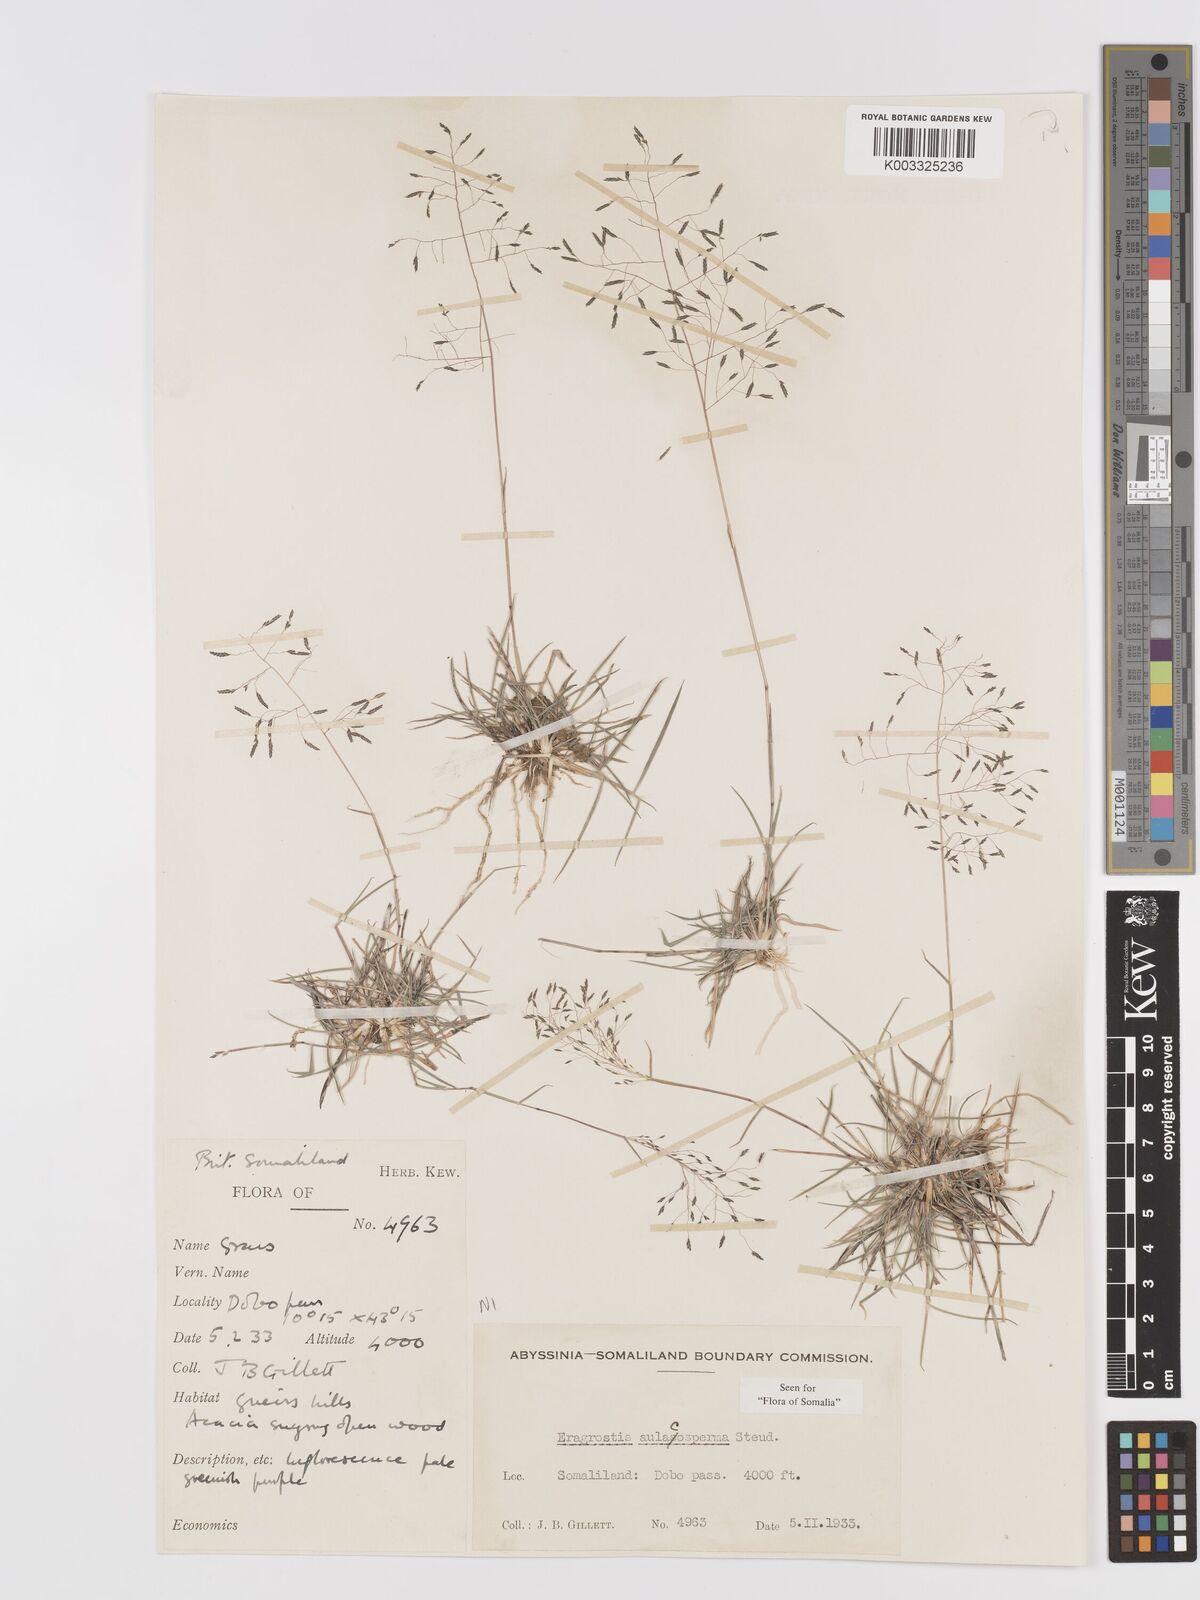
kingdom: Plantae
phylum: Tracheophyta
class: Liliopsida
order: Poales
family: Poaceae
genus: Eragrostis
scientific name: Eragrostis papposa
